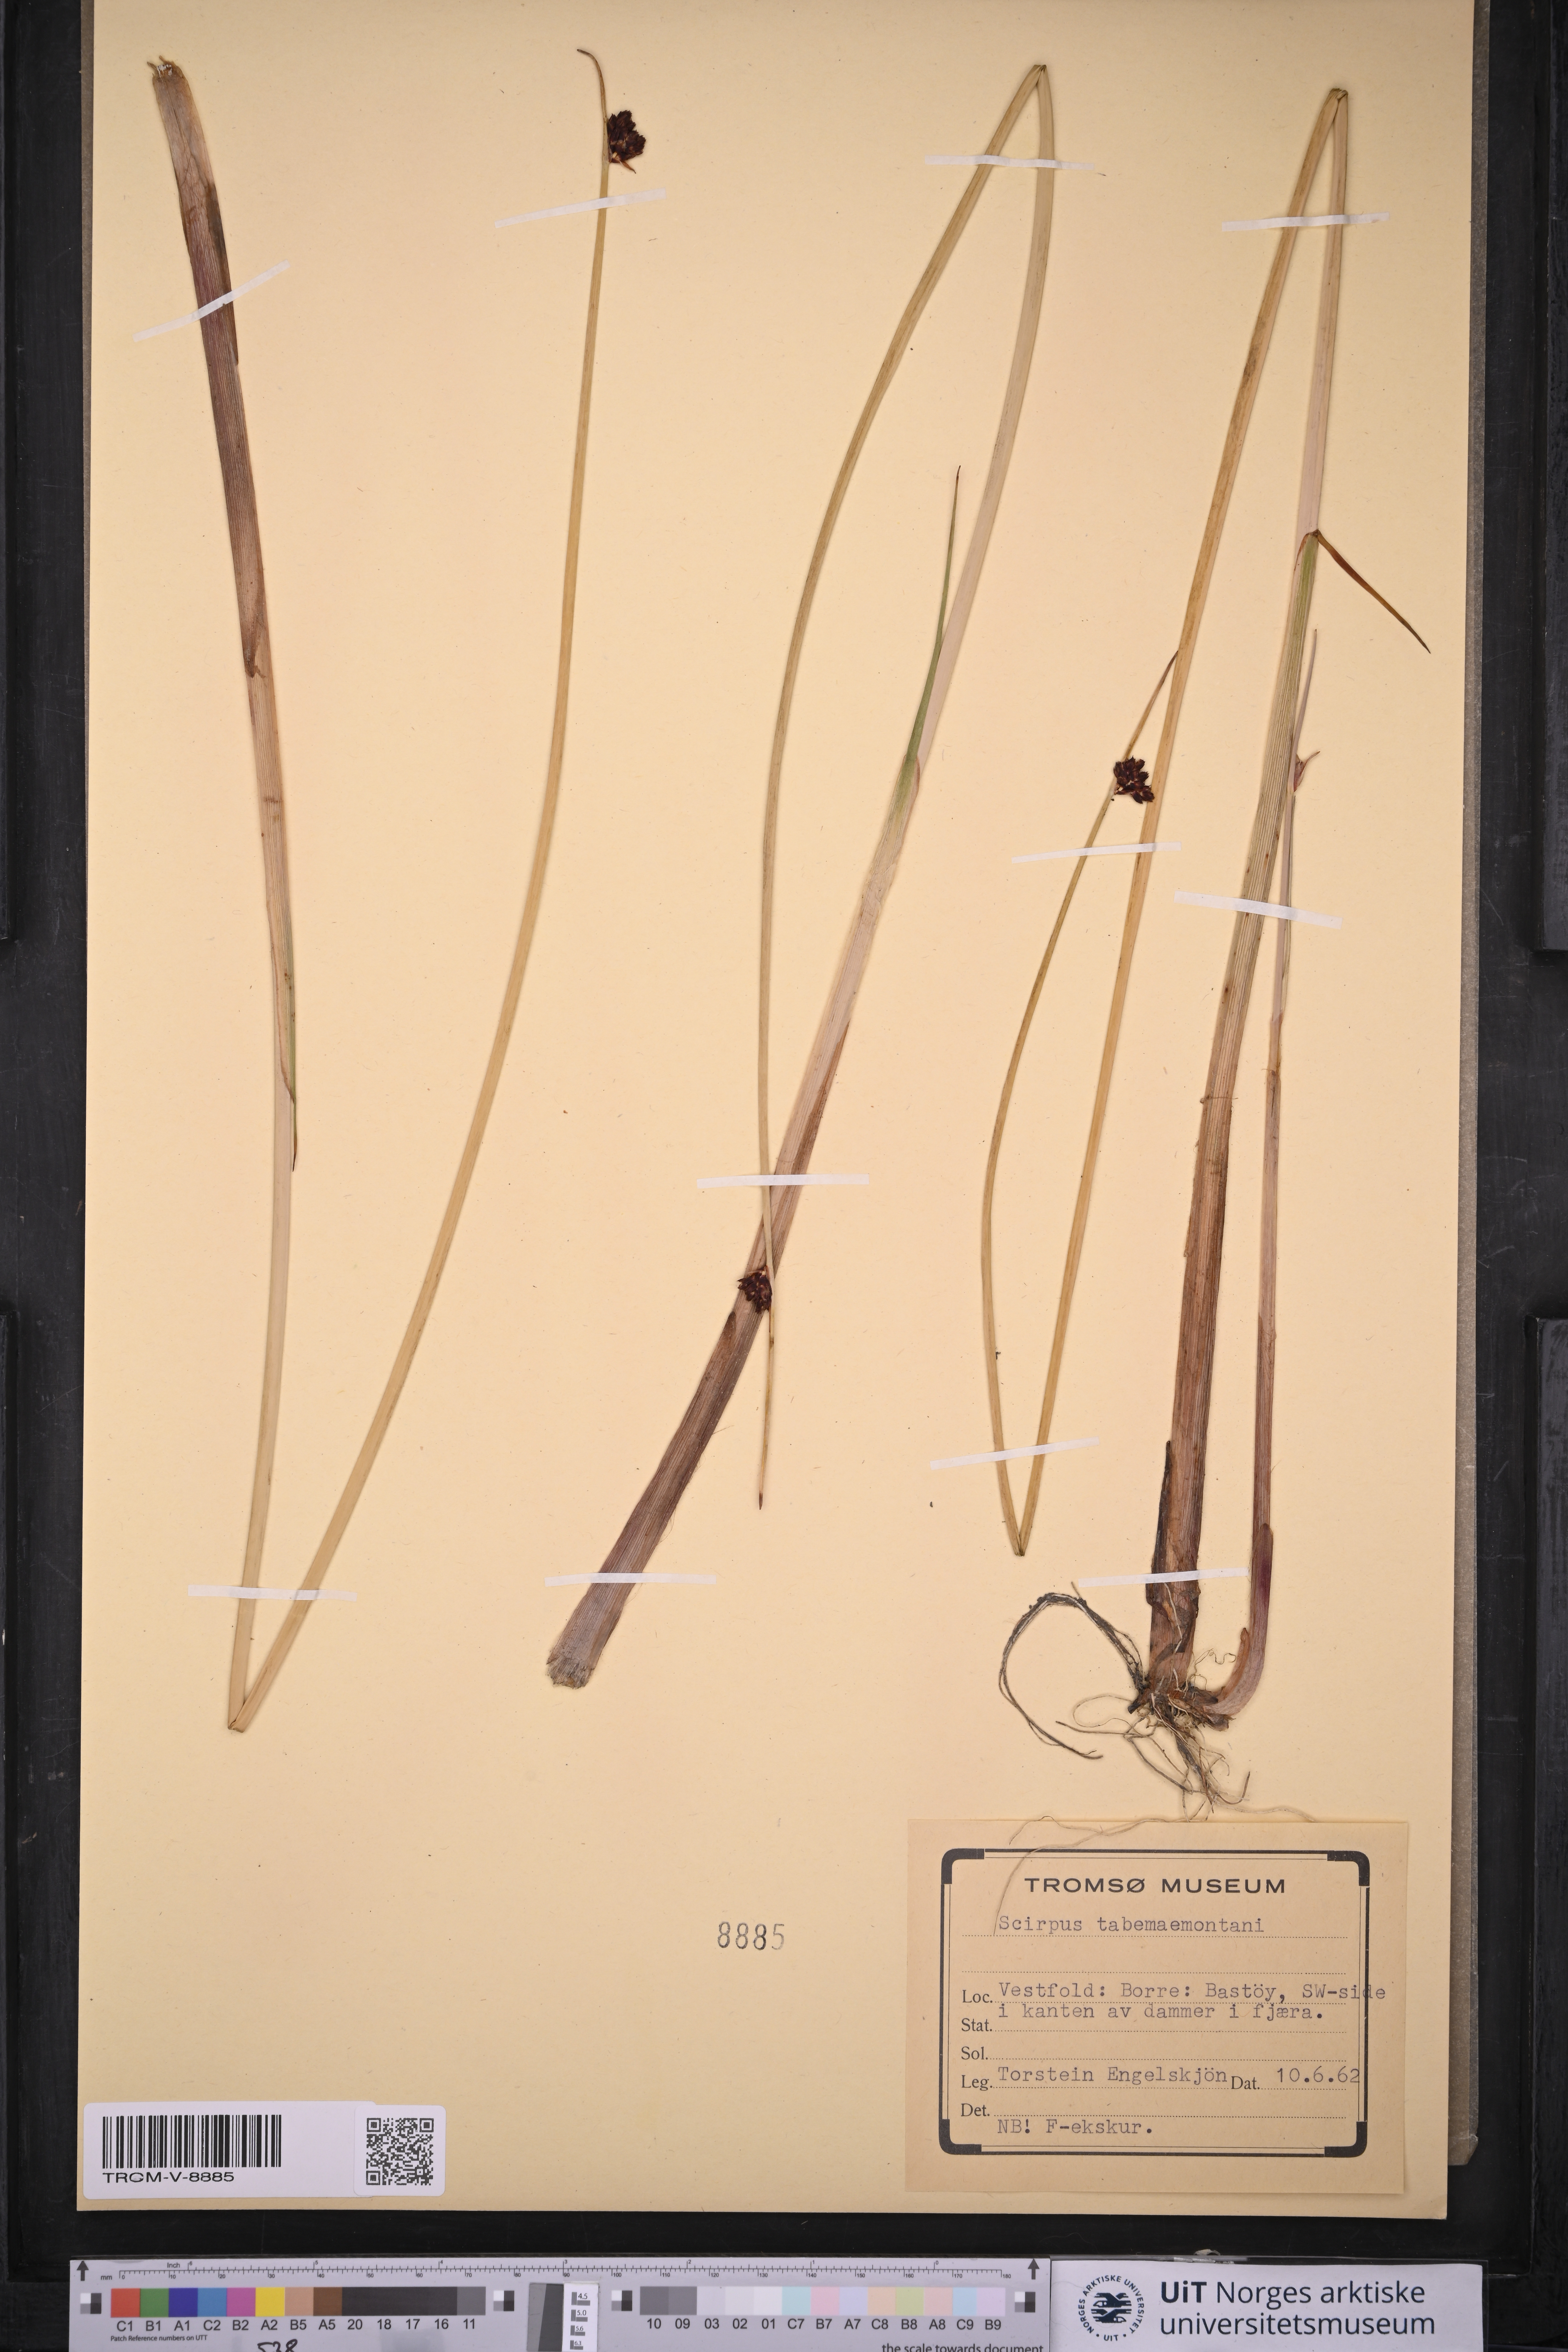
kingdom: Plantae
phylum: Tracheophyta
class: Liliopsida
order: Poales
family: Cyperaceae
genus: Schoenoplectus
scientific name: Schoenoplectus tabernaemontani
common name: Grey club-rush
